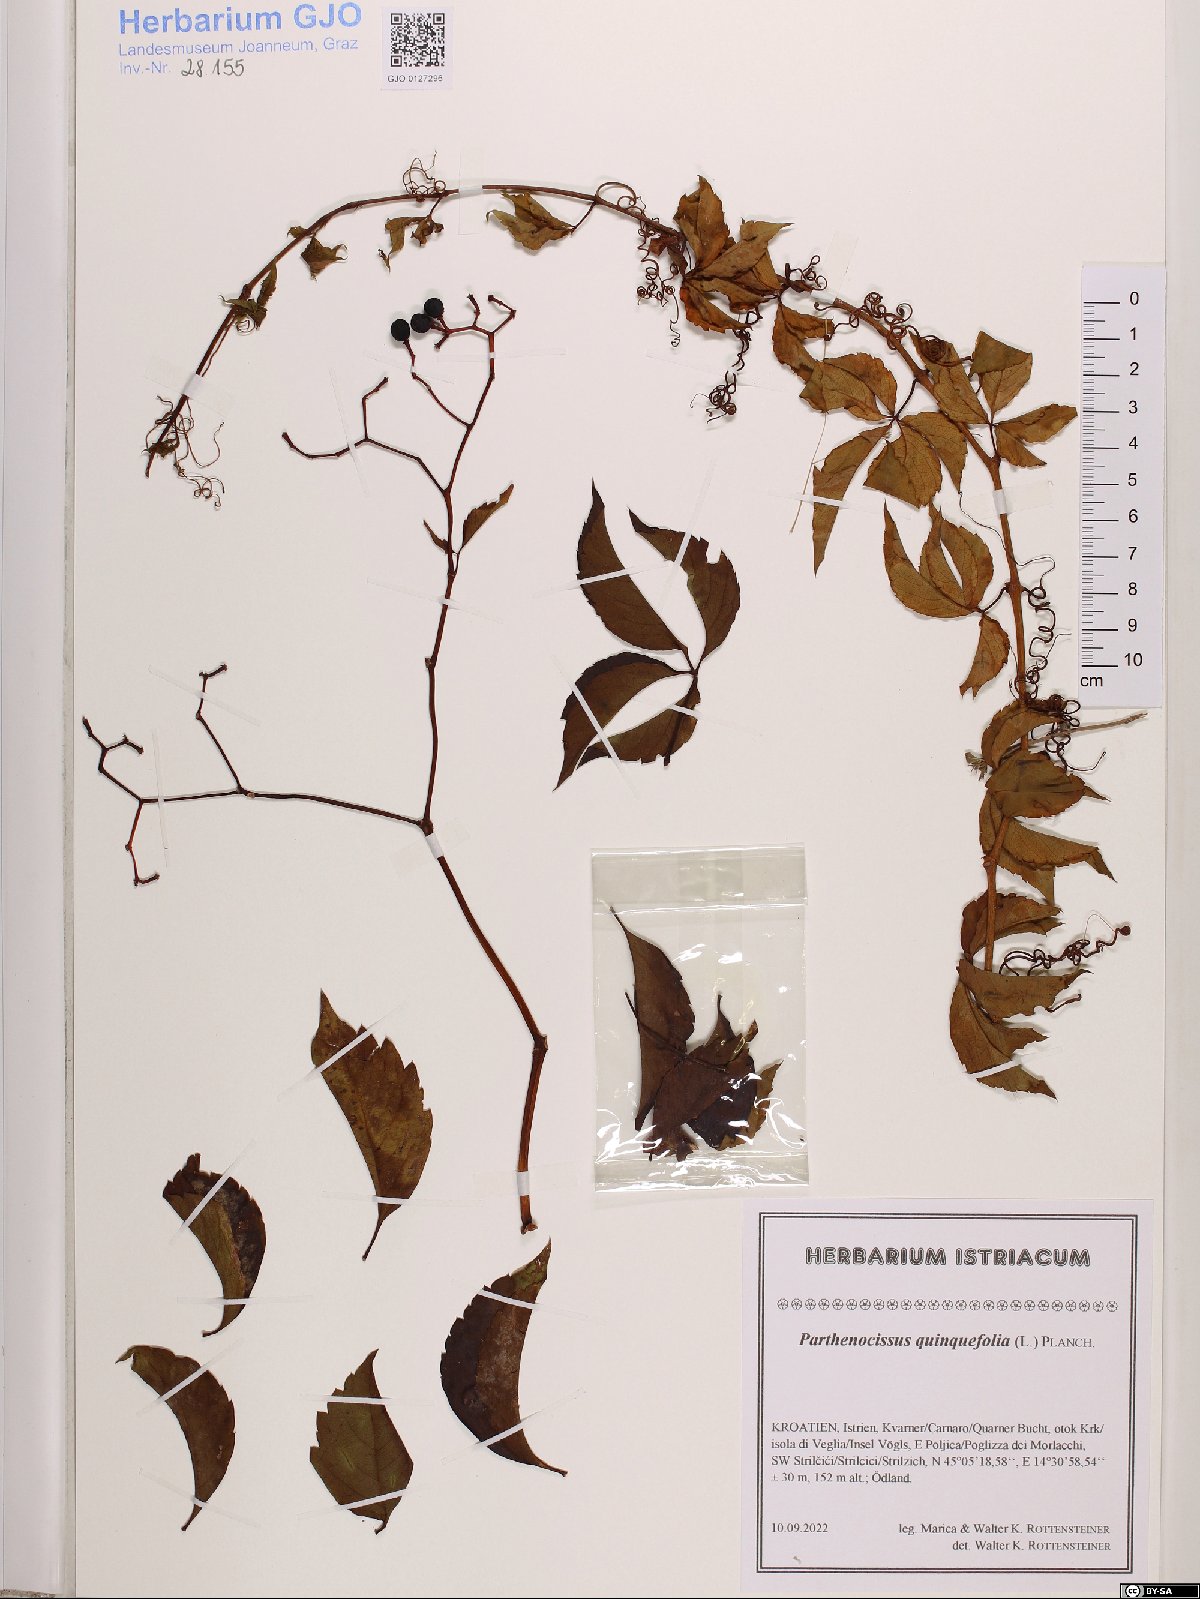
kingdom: Plantae
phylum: Tracheophyta
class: Magnoliopsida
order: Vitales
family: Vitaceae
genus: Parthenocissus
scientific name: Parthenocissus quinquefolia
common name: Virginia-creeper
